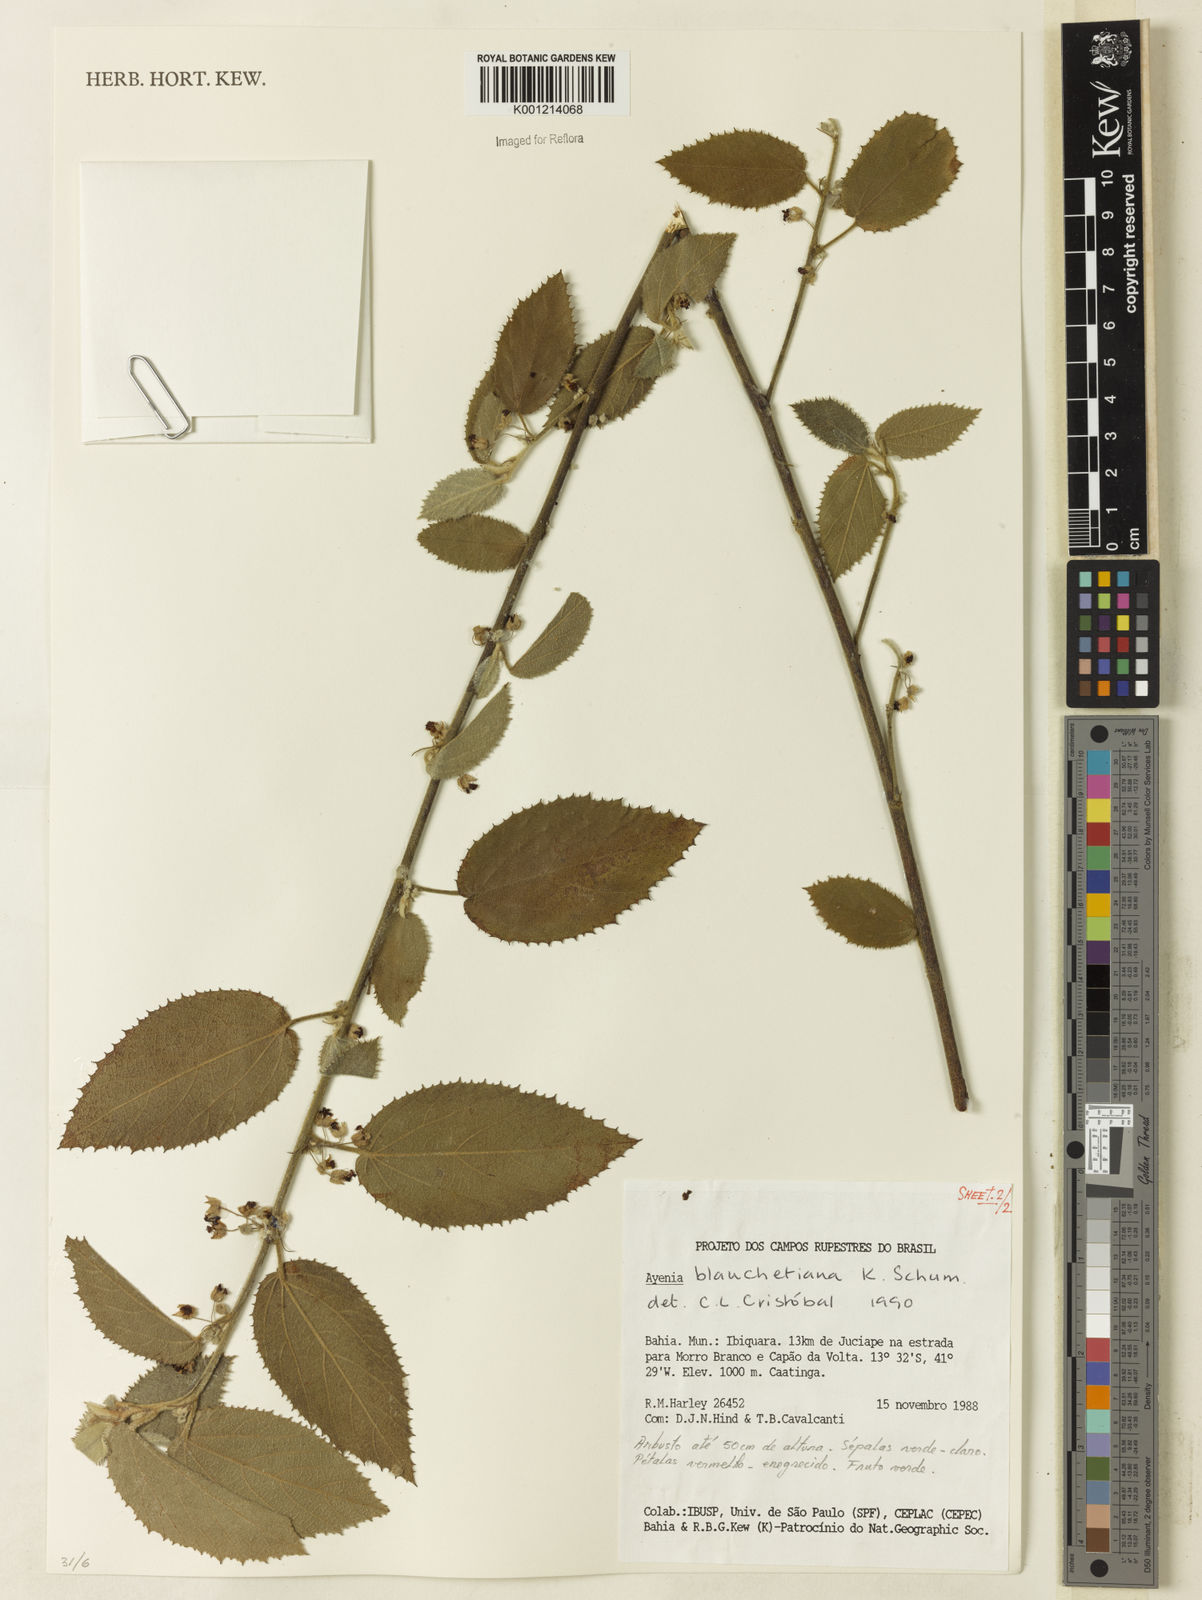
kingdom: Plantae
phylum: Tracheophyta
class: Magnoliopsida
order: Malvales
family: Malvaceae
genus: Ayenia
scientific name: Ayenia blanchetiana
